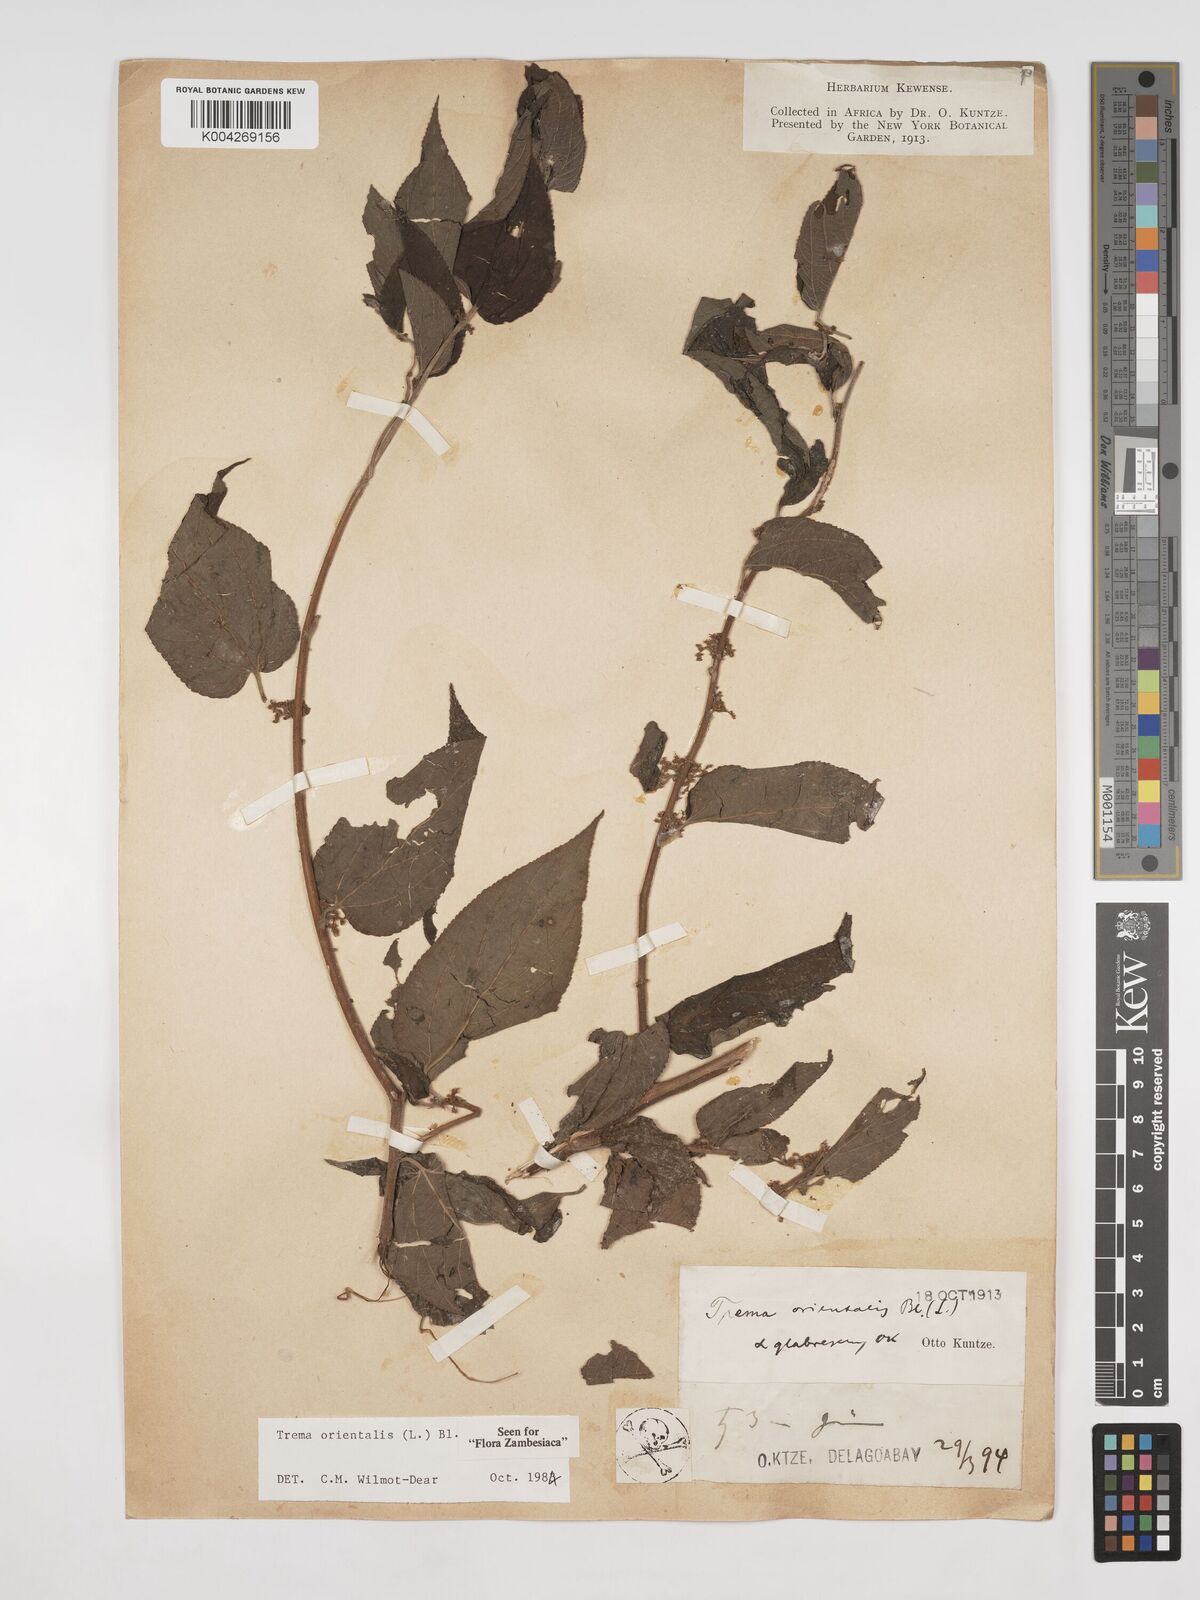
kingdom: Plantae
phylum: Tracheophyta
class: Magnoliopsida
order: Rosales
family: Cannabaceae
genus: Trema
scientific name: Trema orientale
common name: Indian charcoal tree
